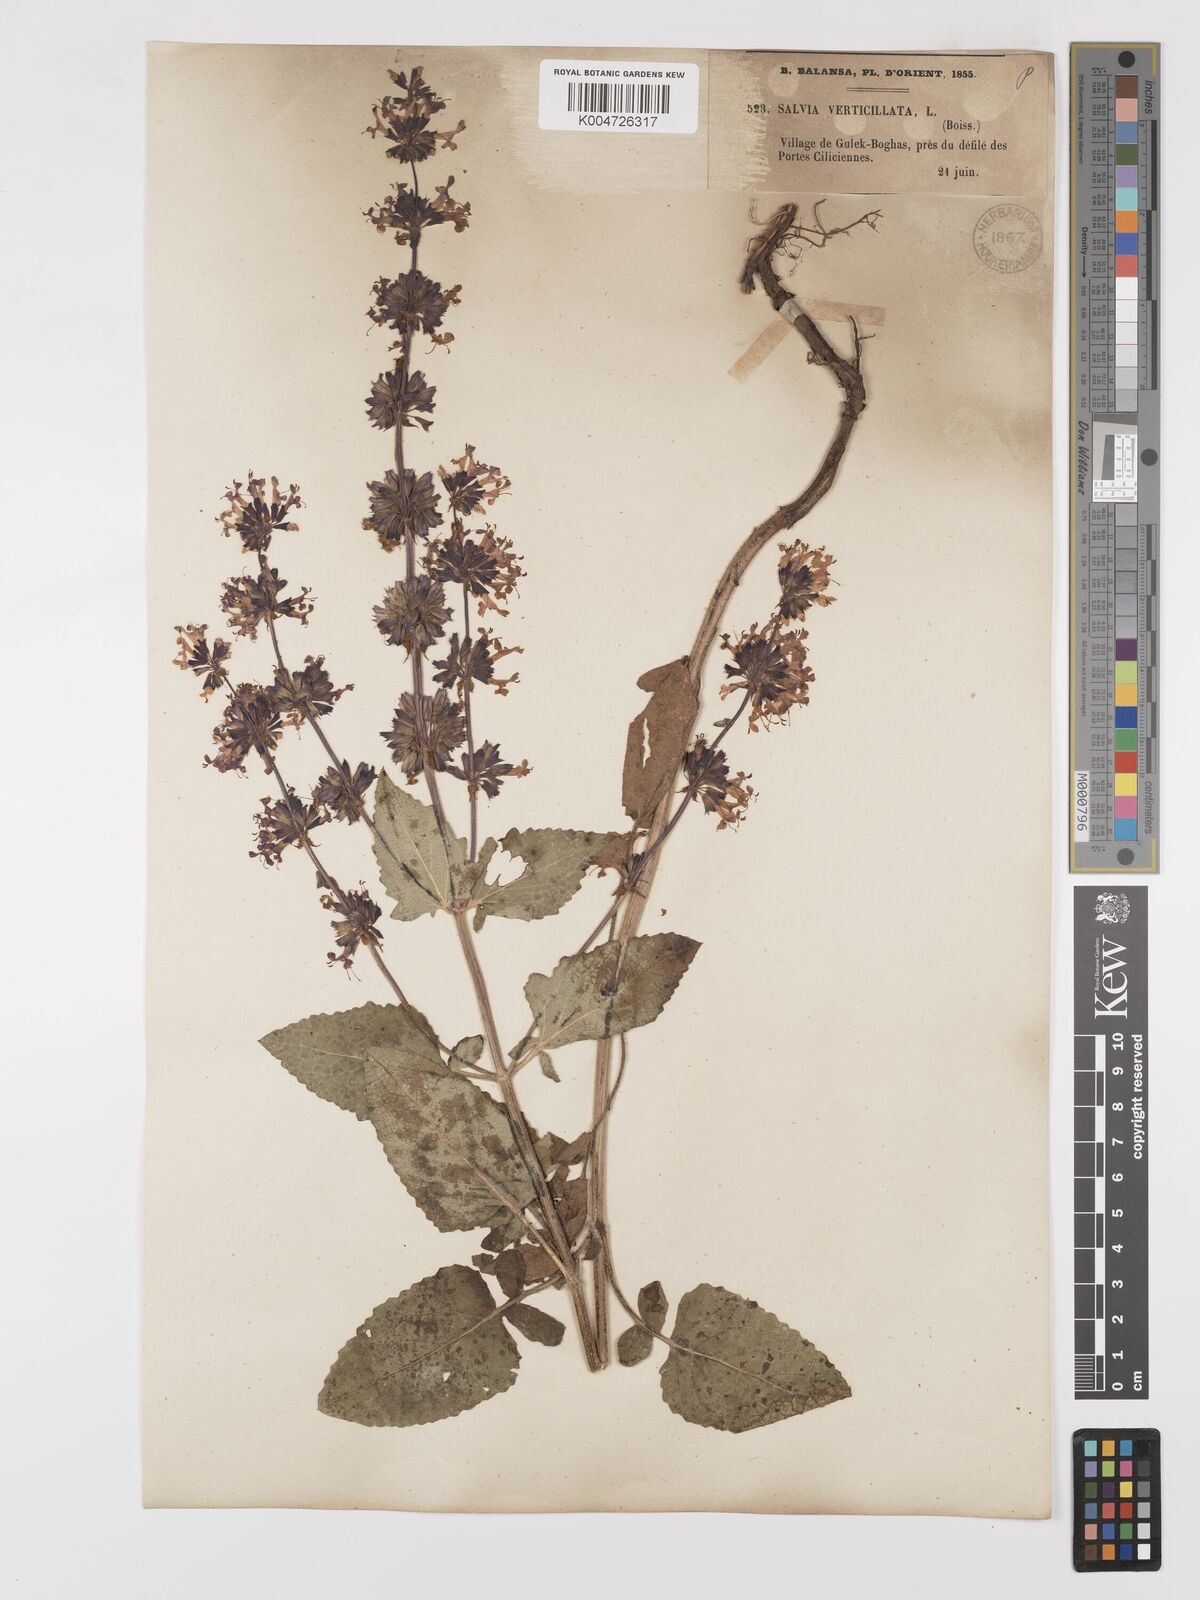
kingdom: Plantae
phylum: Tracheophyta
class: Magnoliopsida
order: Lamiales
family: Lamiaceae
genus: Salvia
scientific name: Salvia verticillata
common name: Whorled clary
